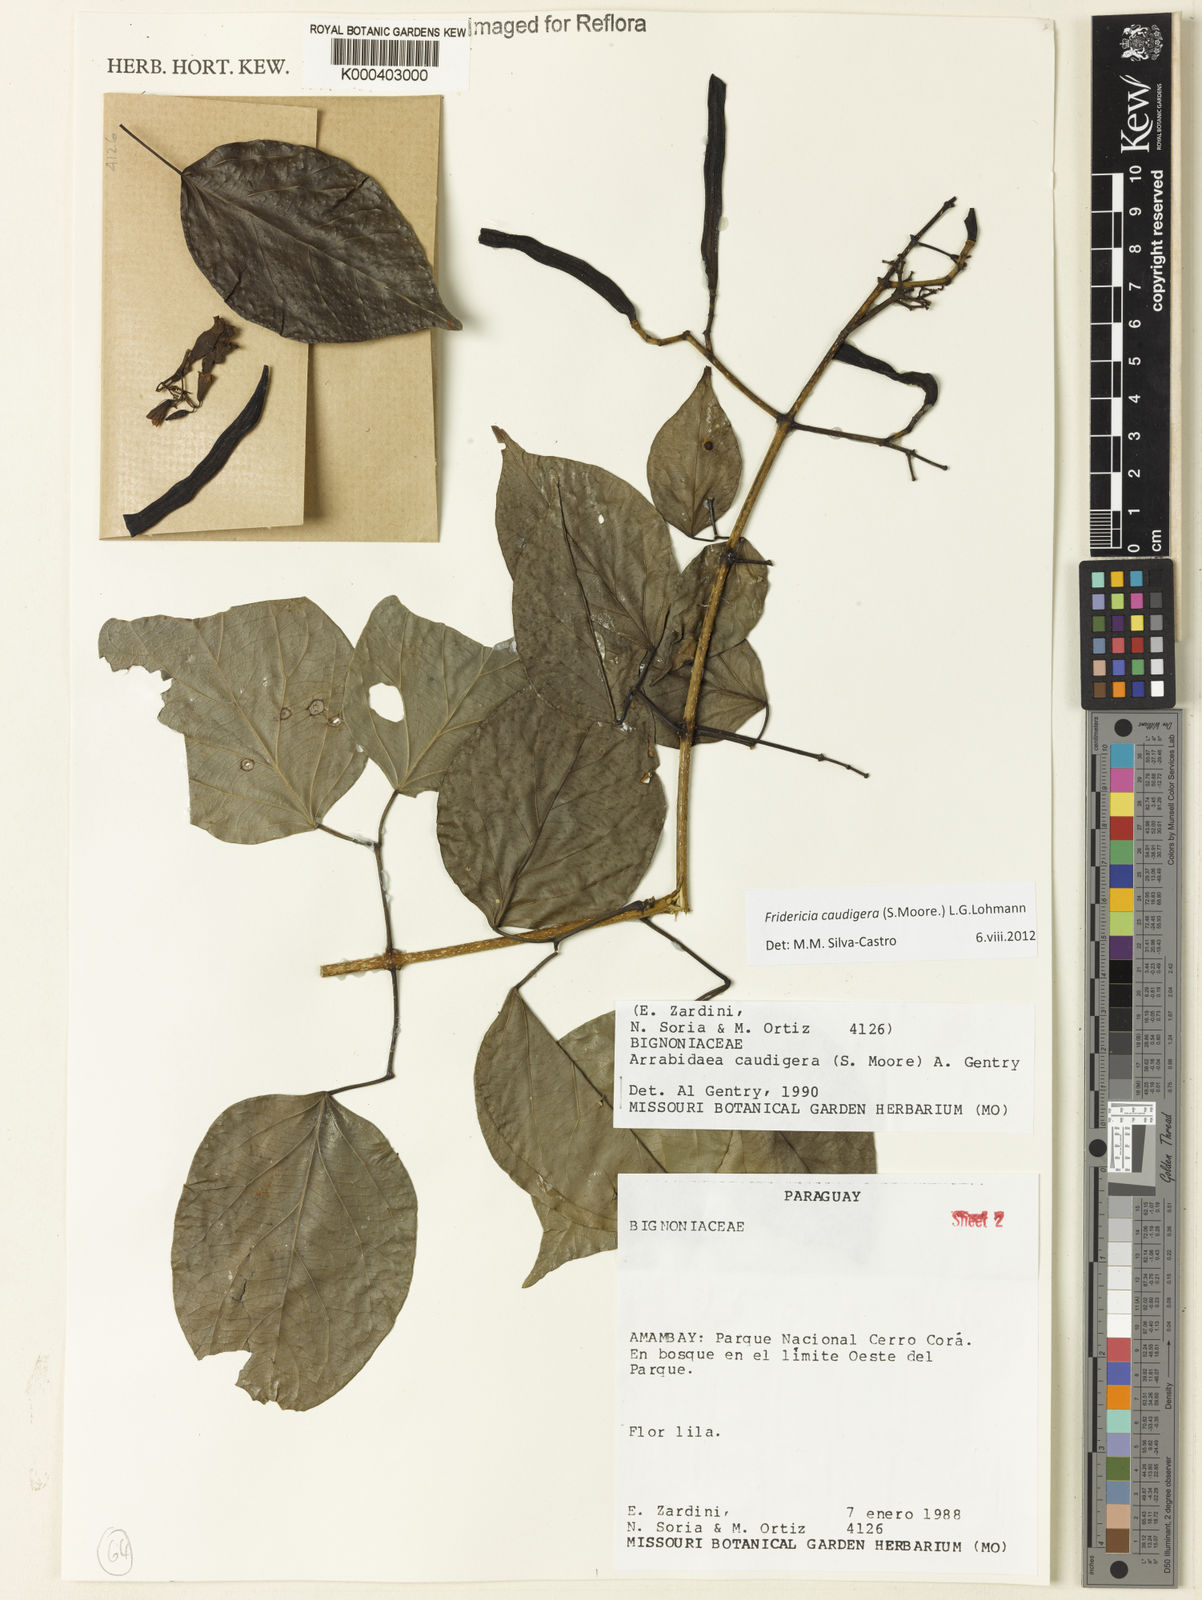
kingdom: Plantae
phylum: Tracheophyta
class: Magnoliopsida
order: Lamiales
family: Bignoniaceae
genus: Fridericia
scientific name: Fridericia caudigera
